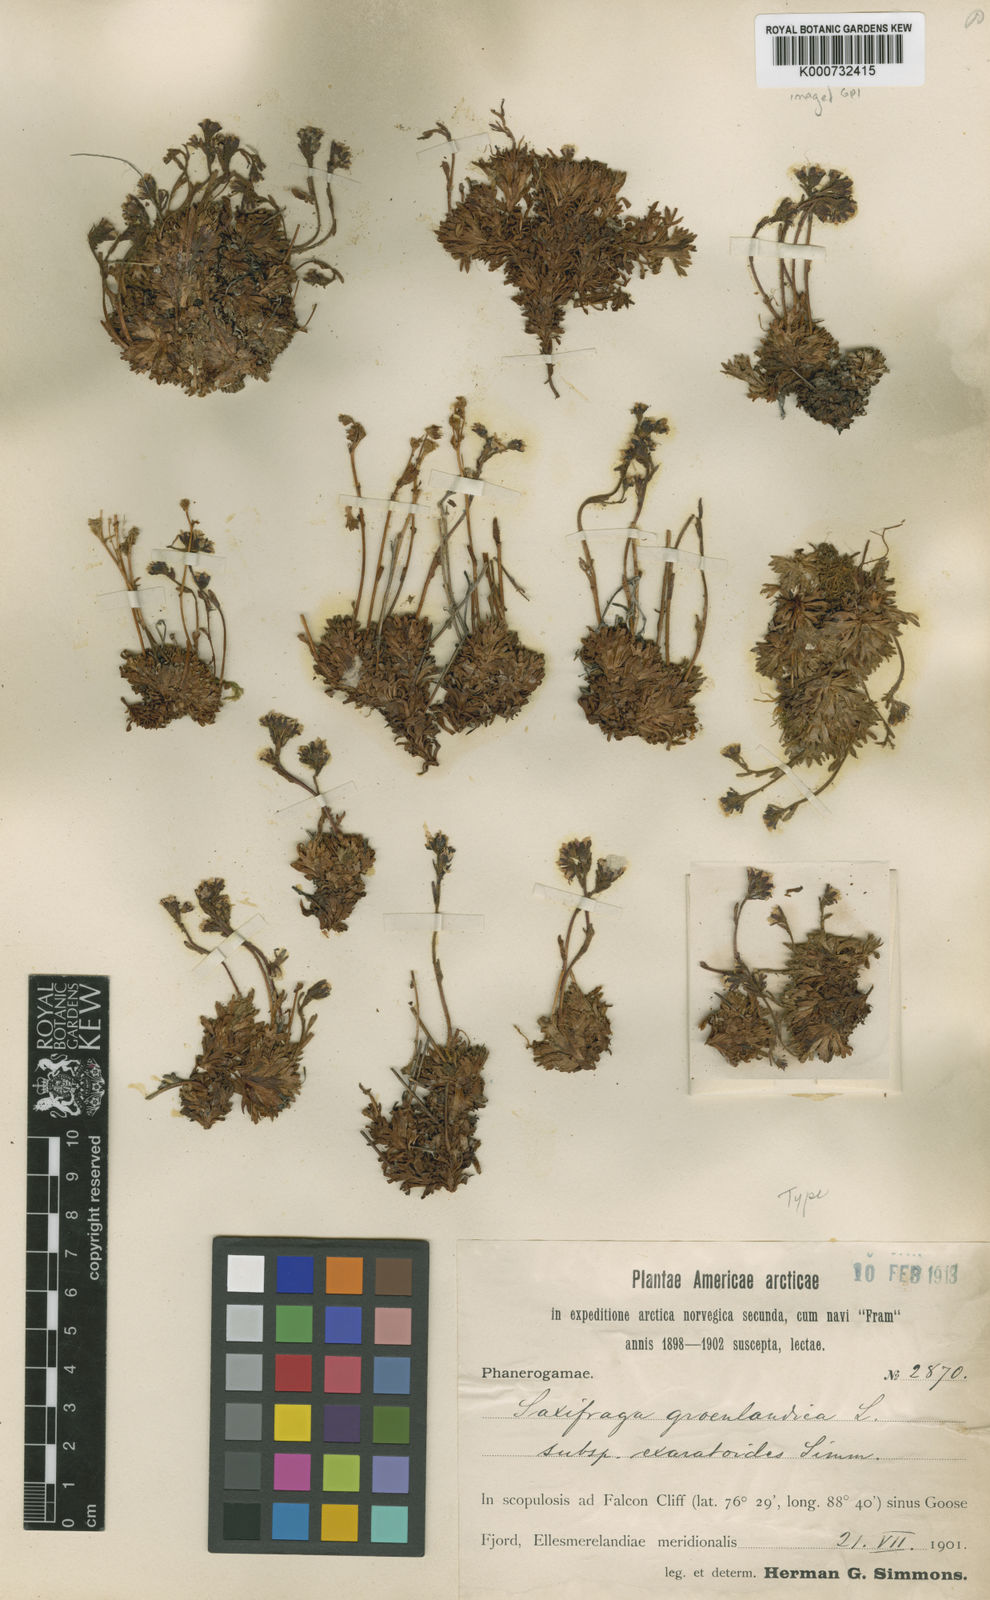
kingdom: Plantae
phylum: Tracheophyta
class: Magnoliopsida
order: Saxifragales
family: Saxifragaceae
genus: Saxifraga
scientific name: Saxifraga cespitosa
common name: Tufted saxifrage
